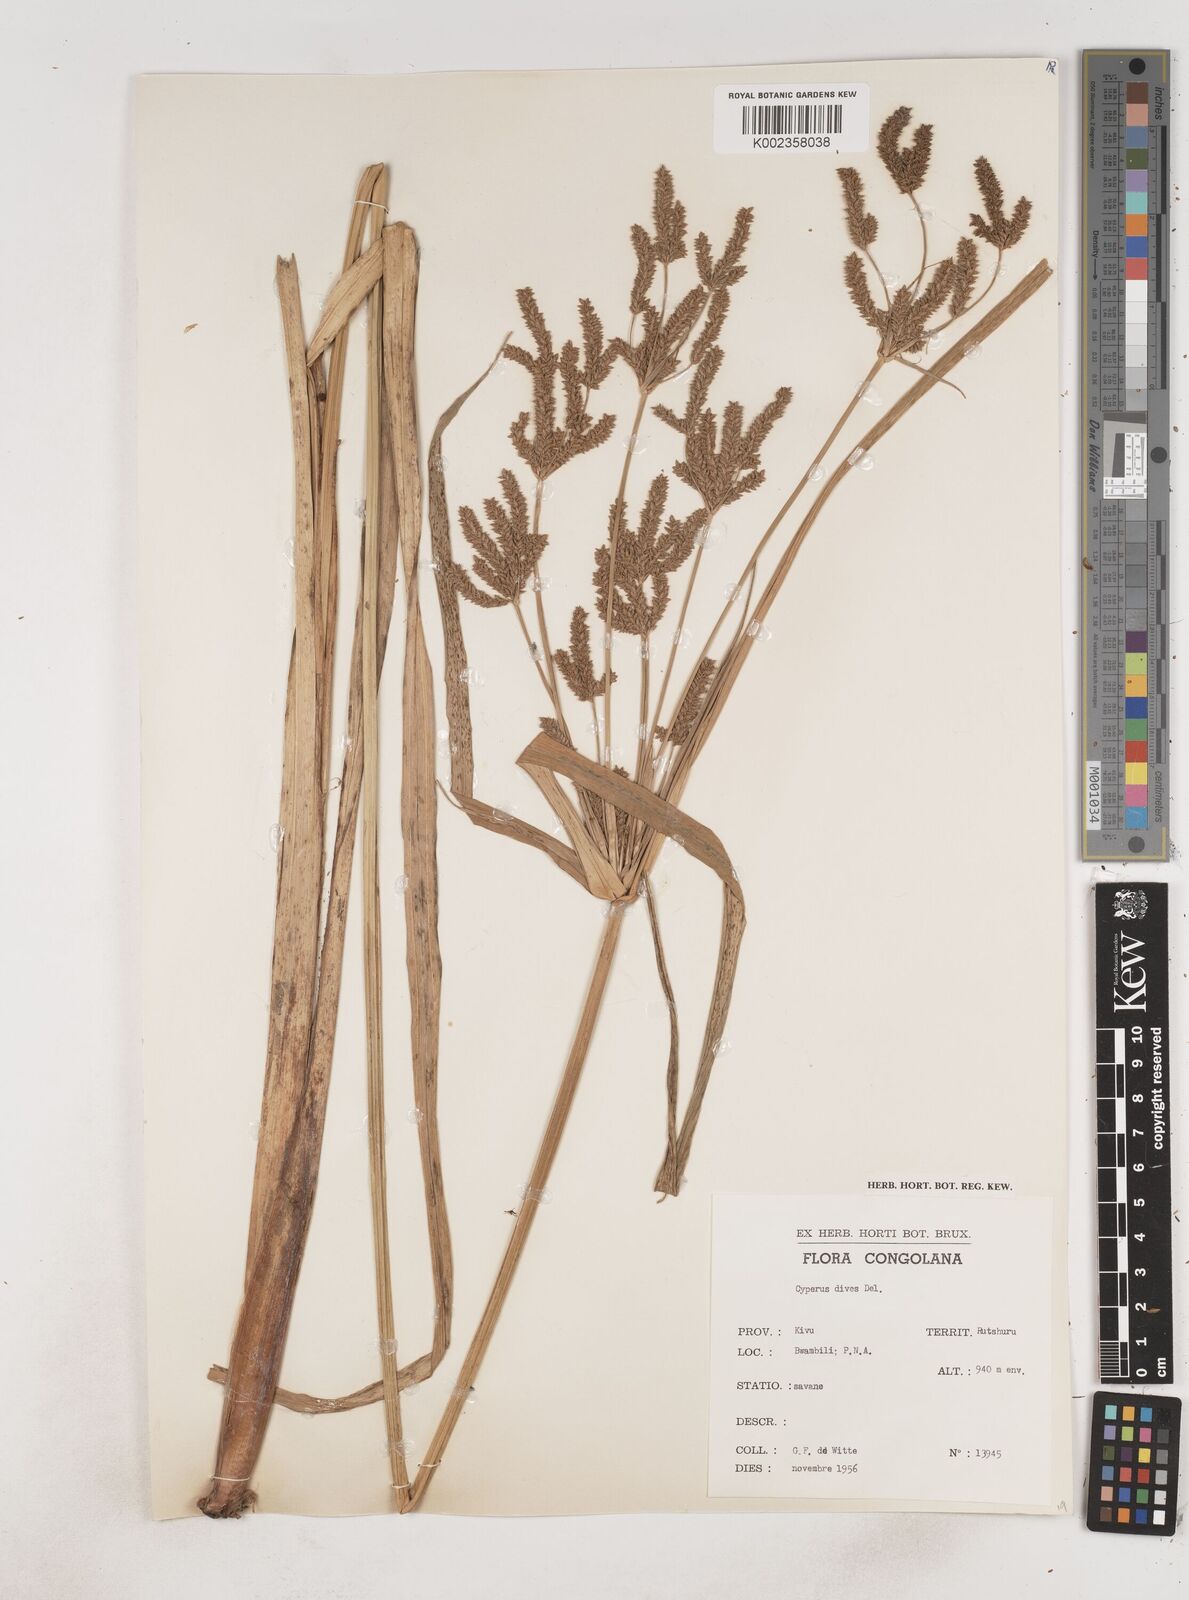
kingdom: Plantae
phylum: Tracheophyta
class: Liliopsida
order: Poales
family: Cyperaceae
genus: Cyperus
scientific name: Cyperus dives
